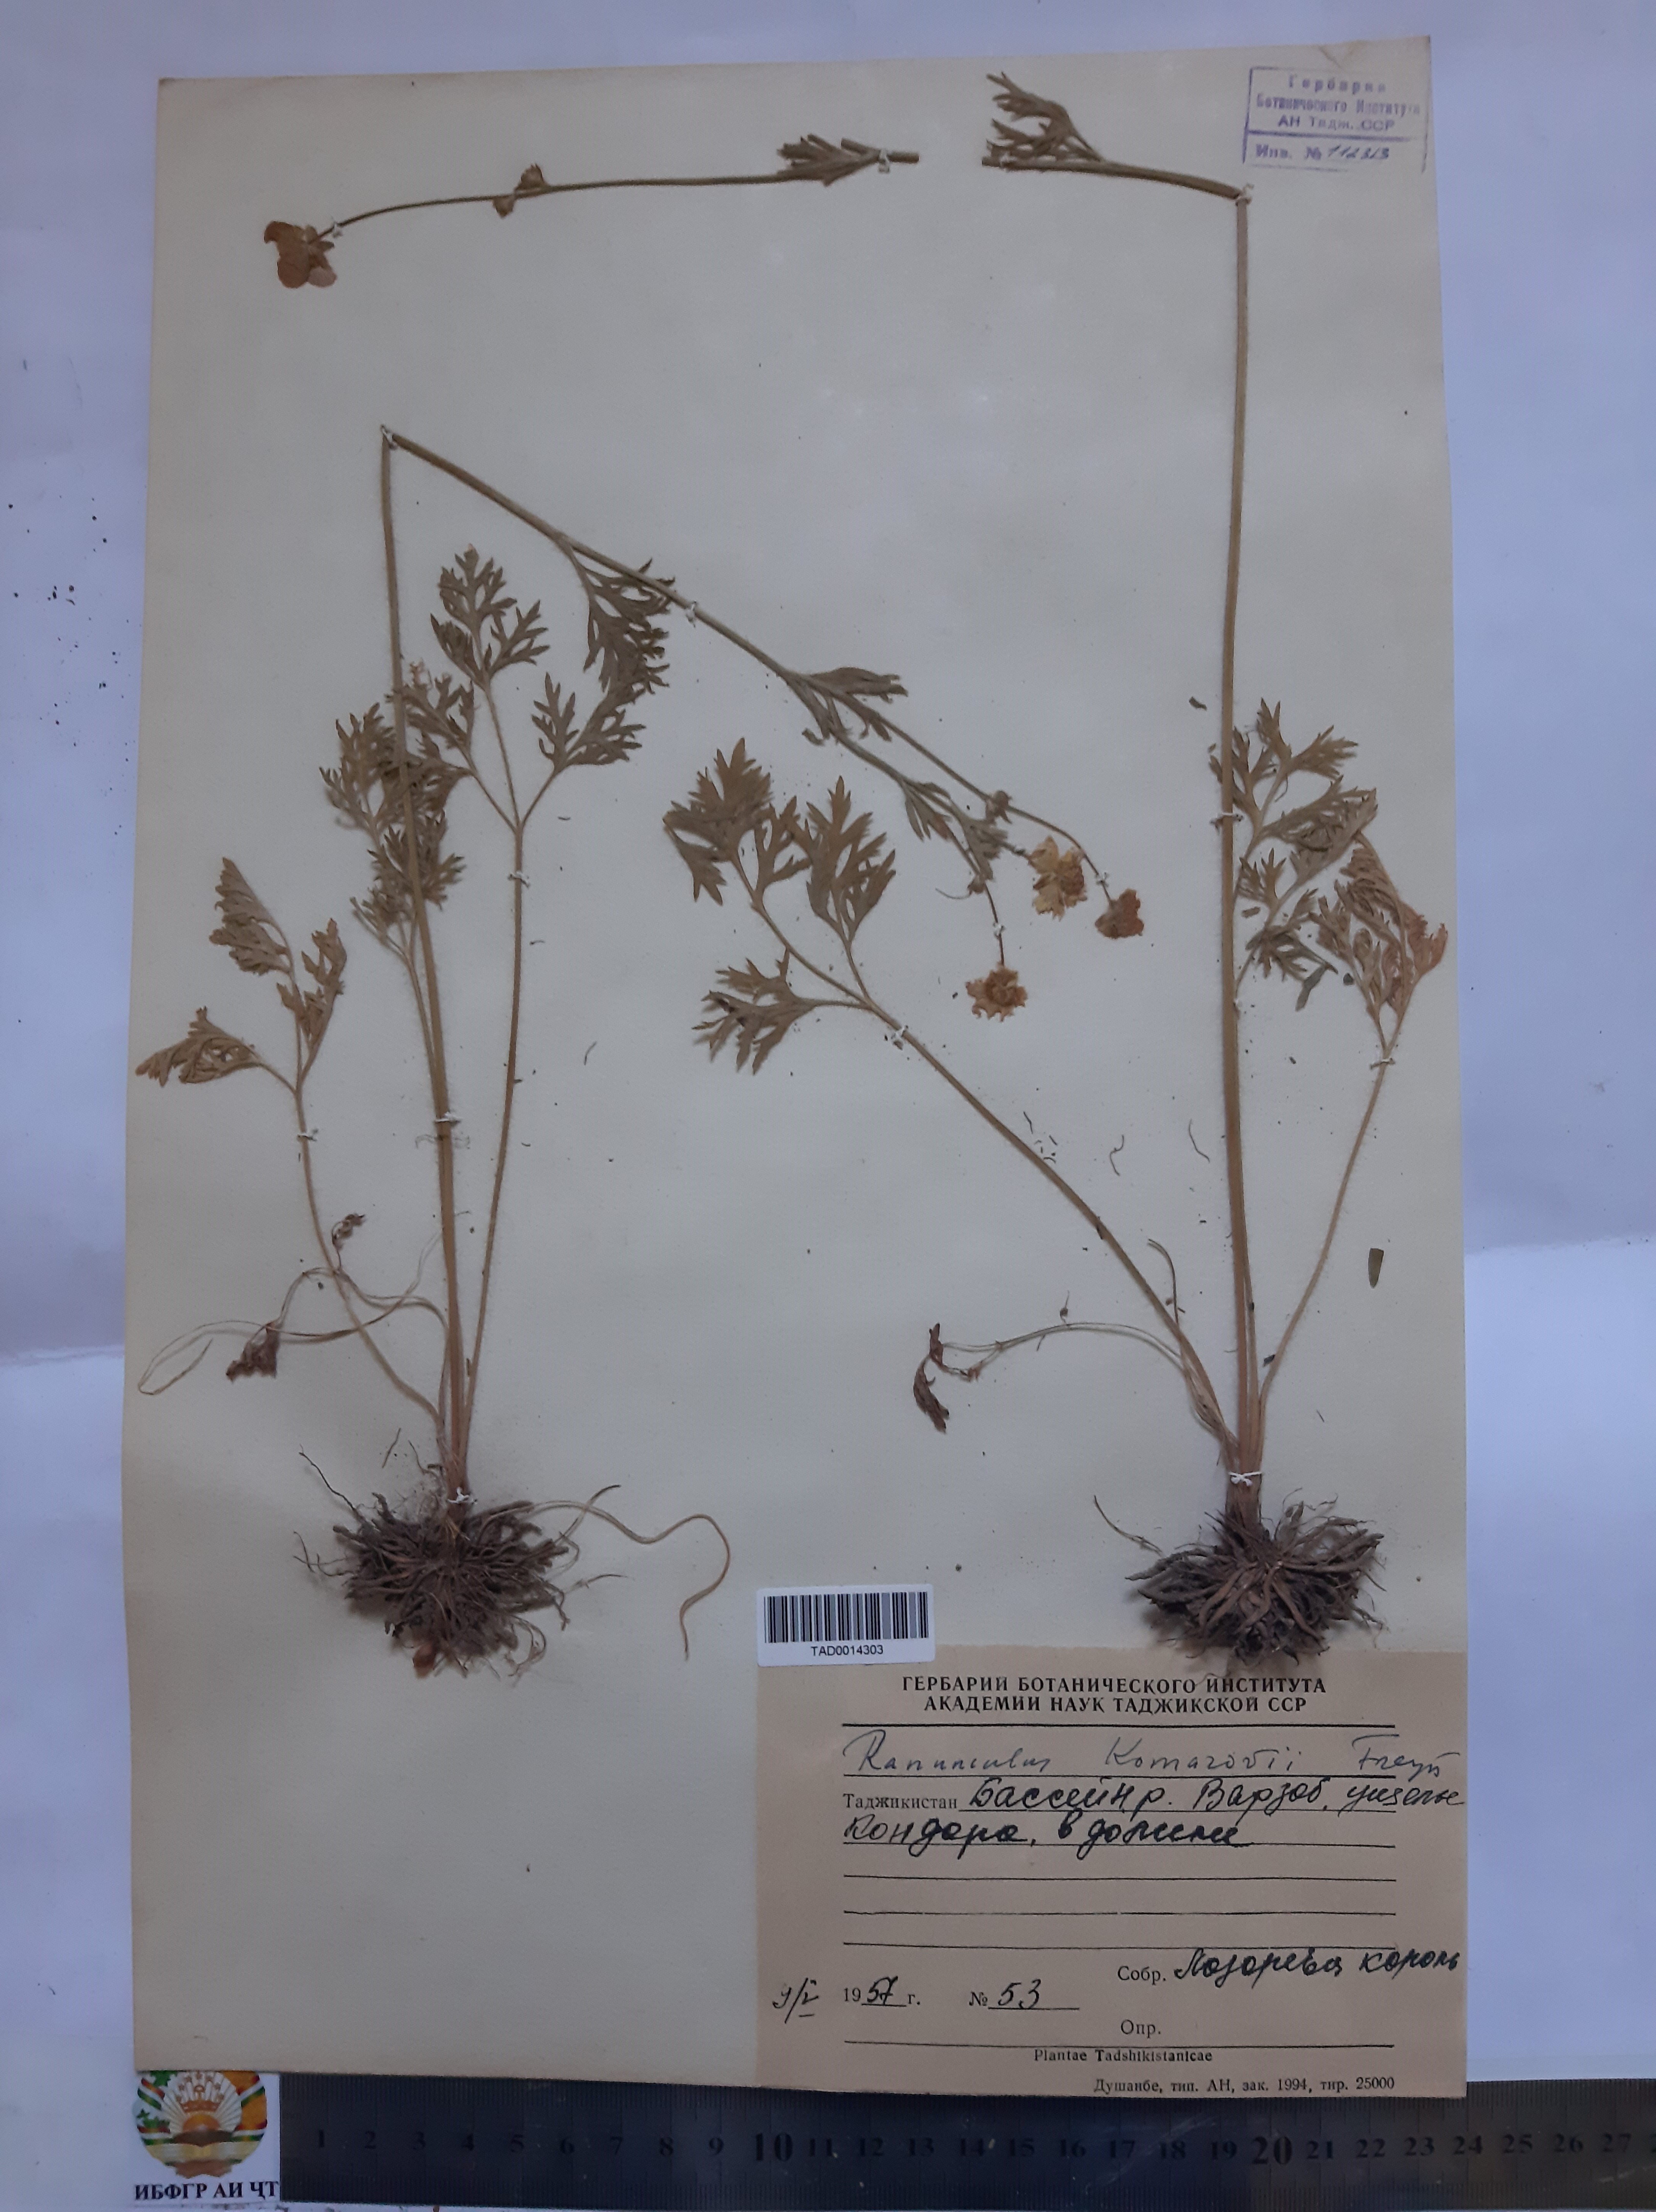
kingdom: Plantae
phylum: Tracheophyta
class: Magnoliopsida
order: Ranunculales
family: Ranunculaceae
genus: Ranunculus
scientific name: Ranunculus komarovii
